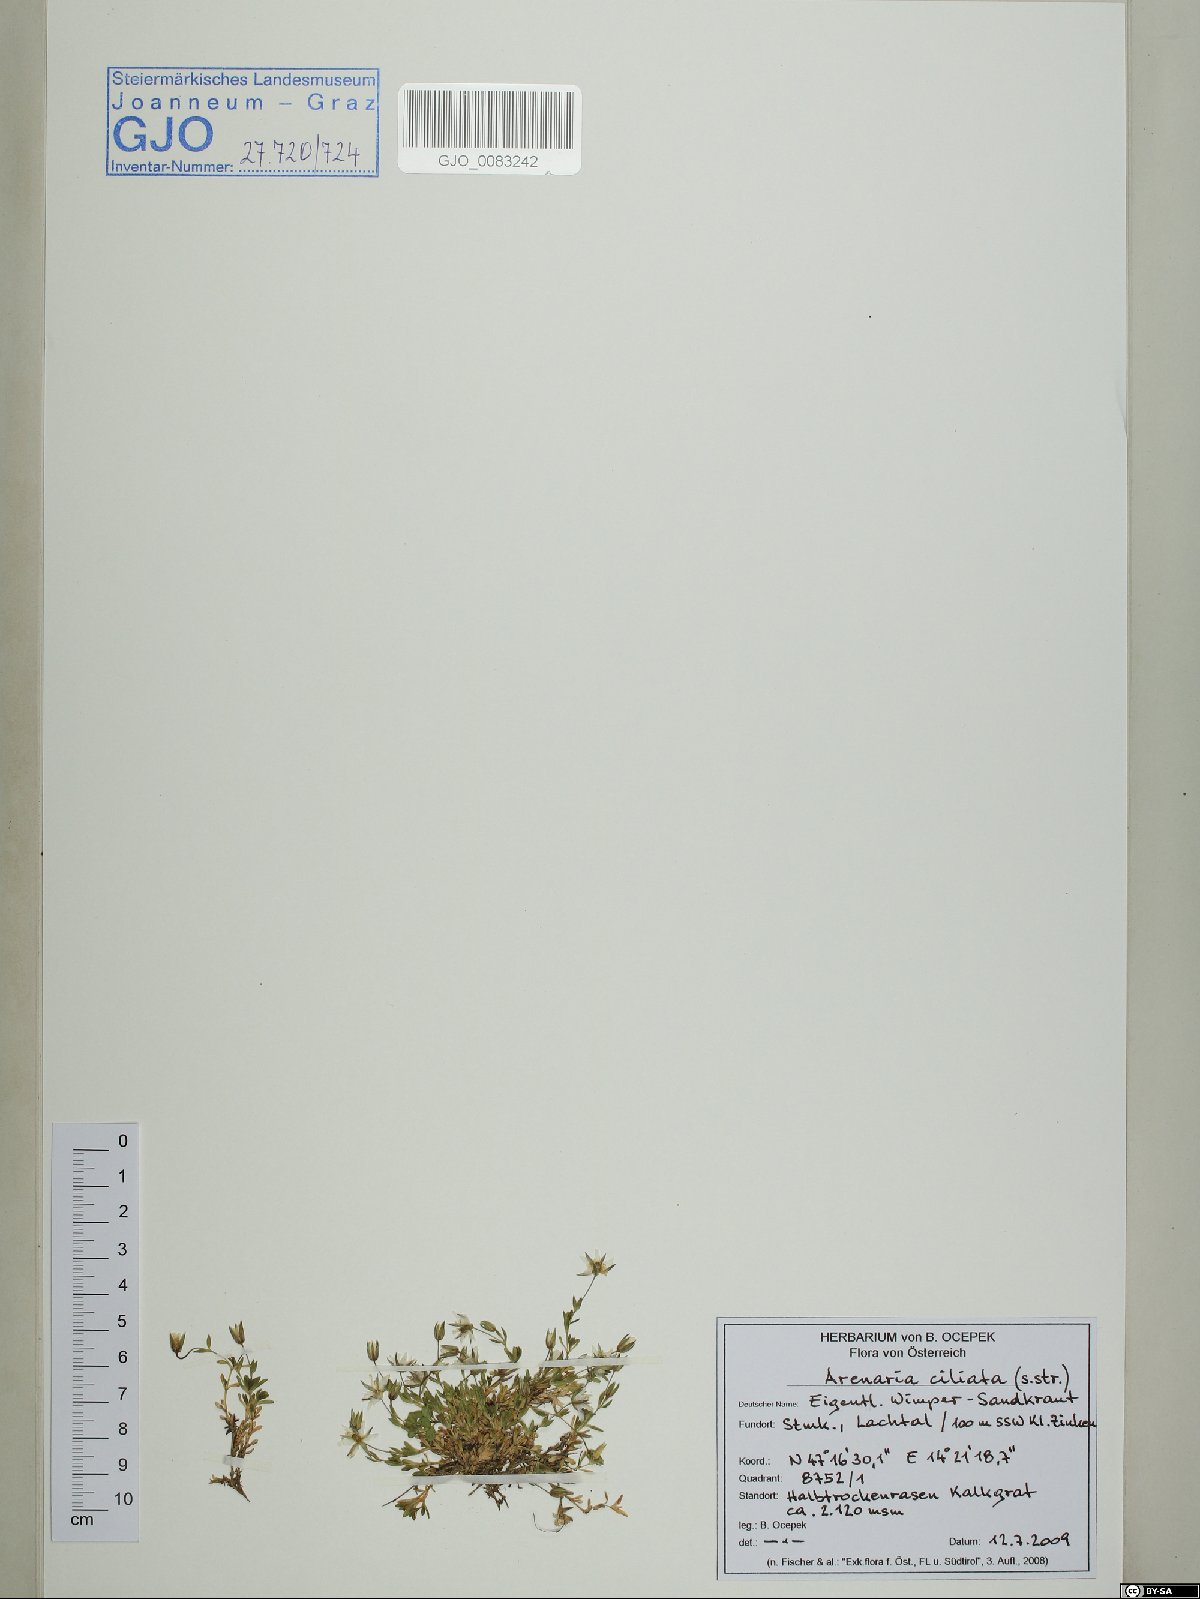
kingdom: Plantae
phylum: Tracheophyta
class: Magnoliopsida
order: Caryophyllales
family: Caryophyllaceae
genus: Arenaria
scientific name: Arenaria ciliata
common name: Fringed sandwort
